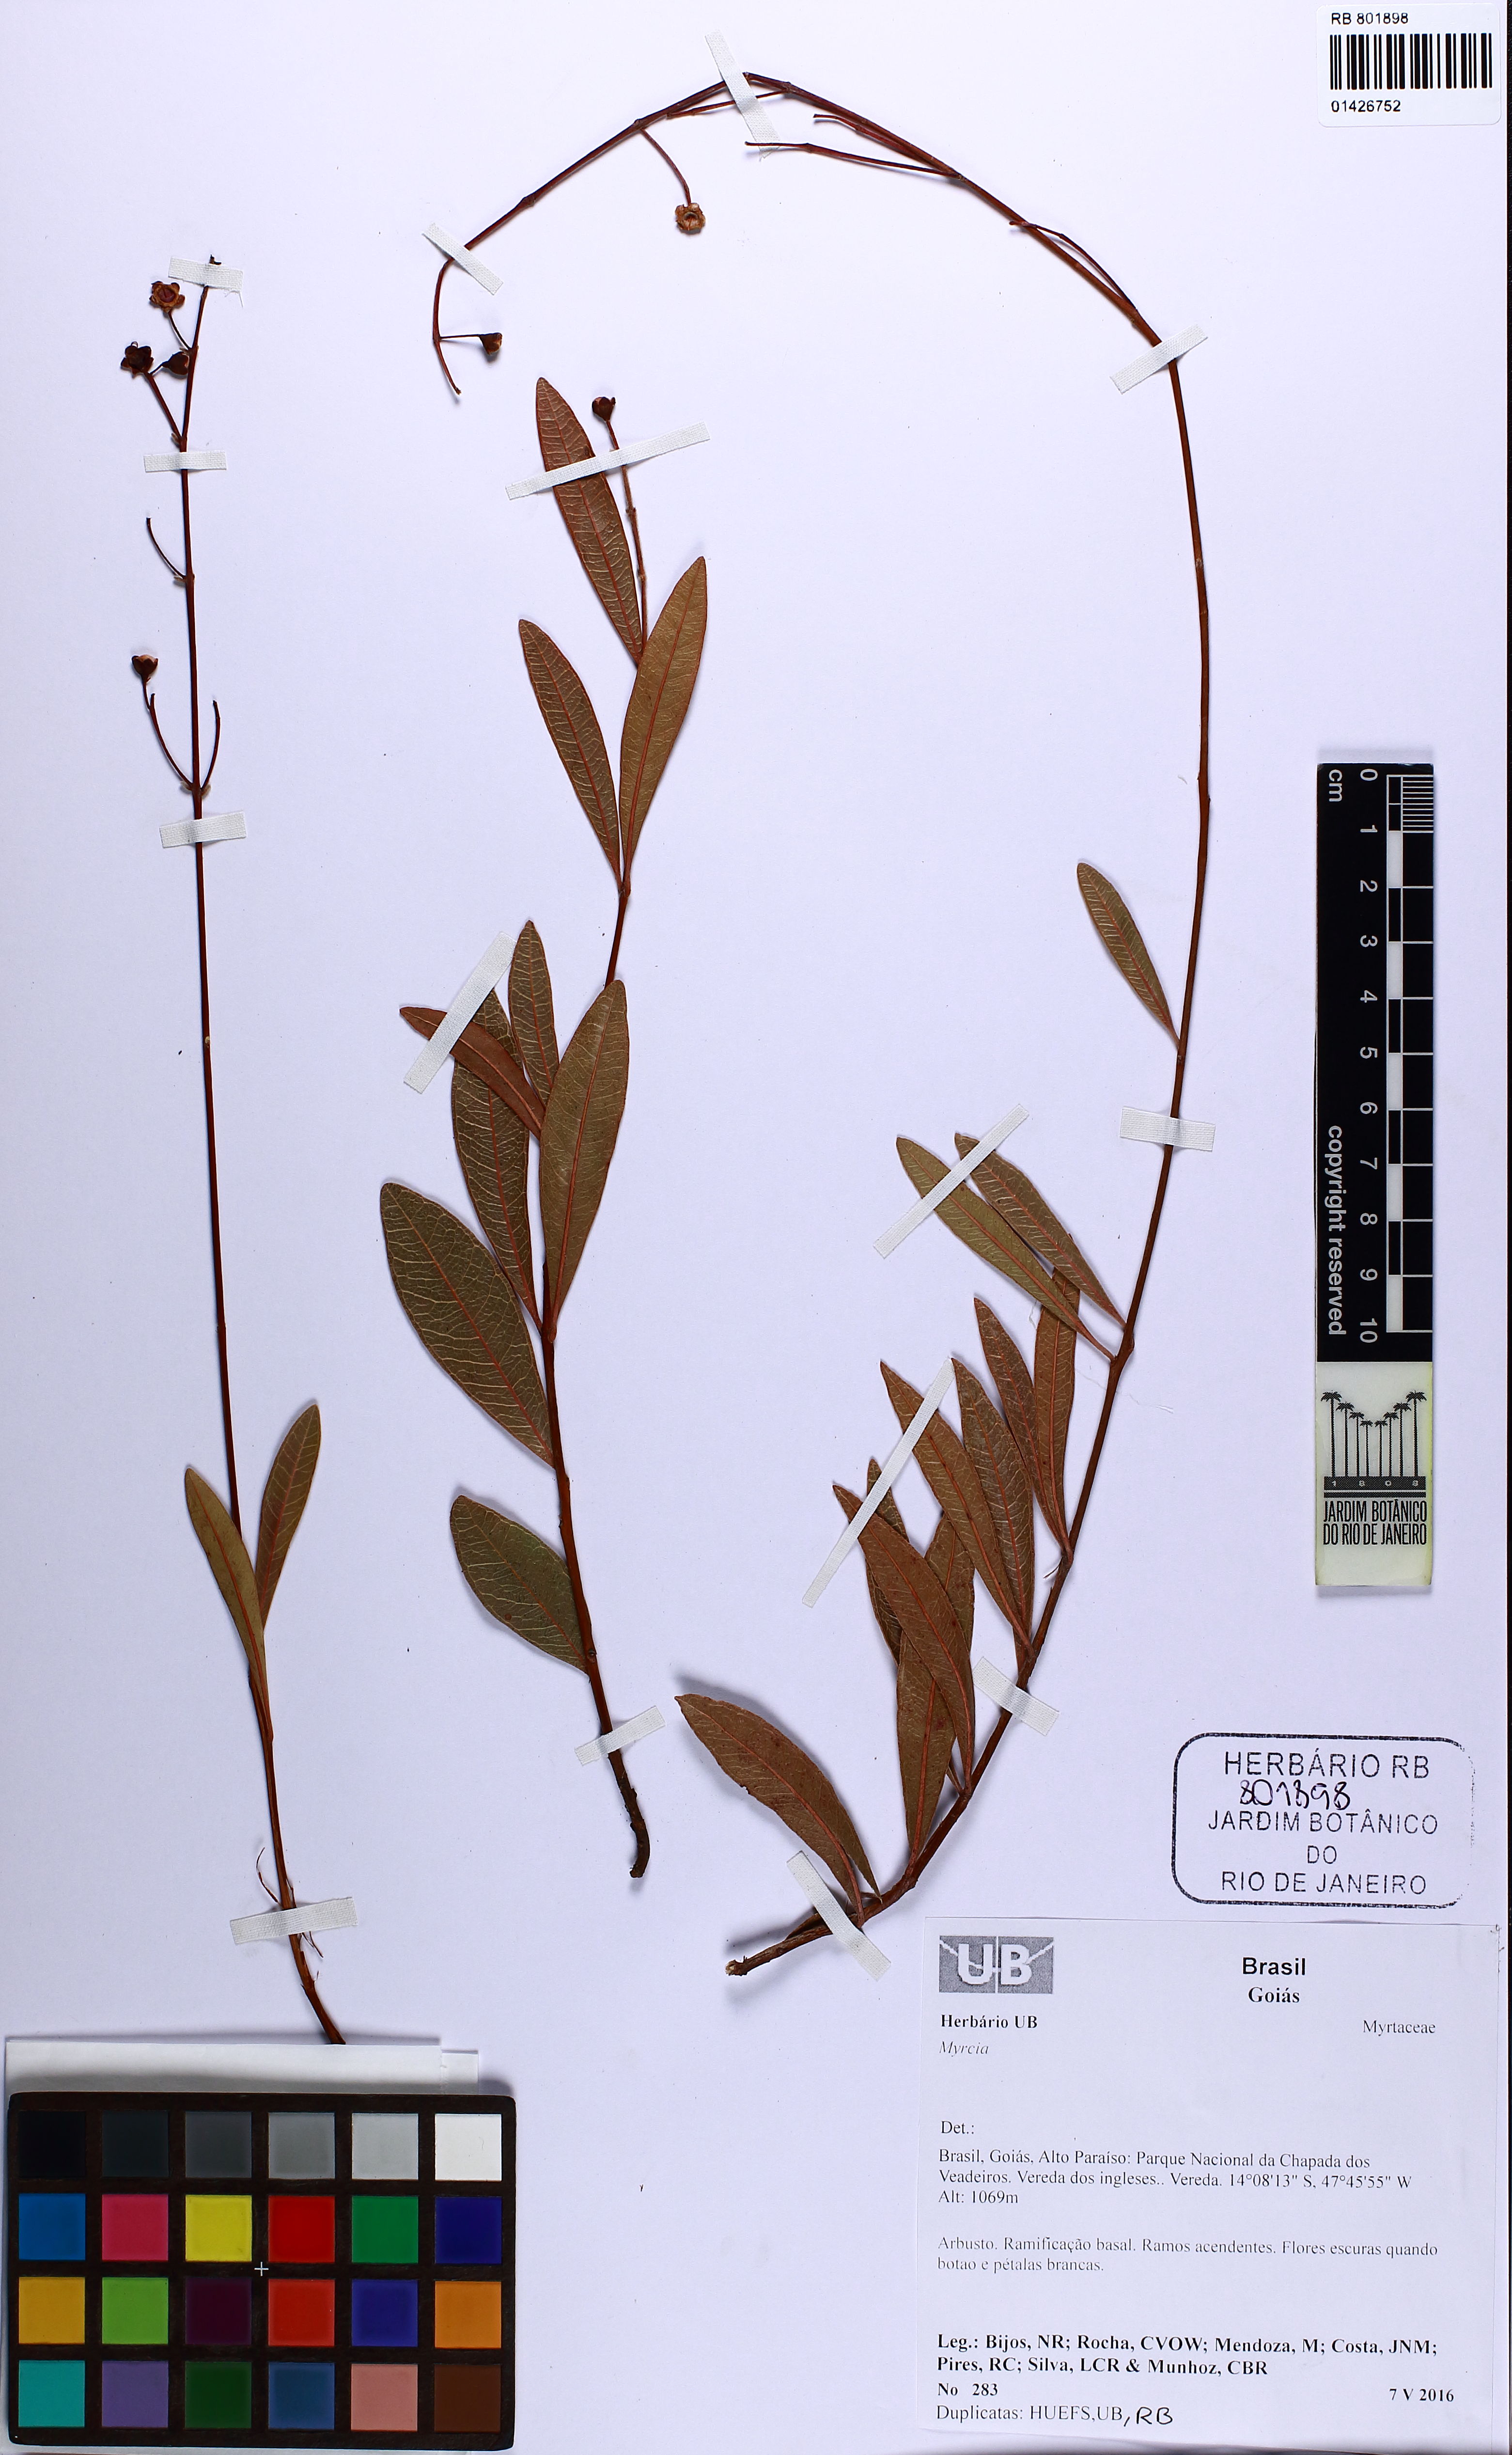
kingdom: Plantae
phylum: Tracheophyta
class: Magnoliopsida
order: Myrtales
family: Myrtaceae
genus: Myrcia
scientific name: Myrcia
